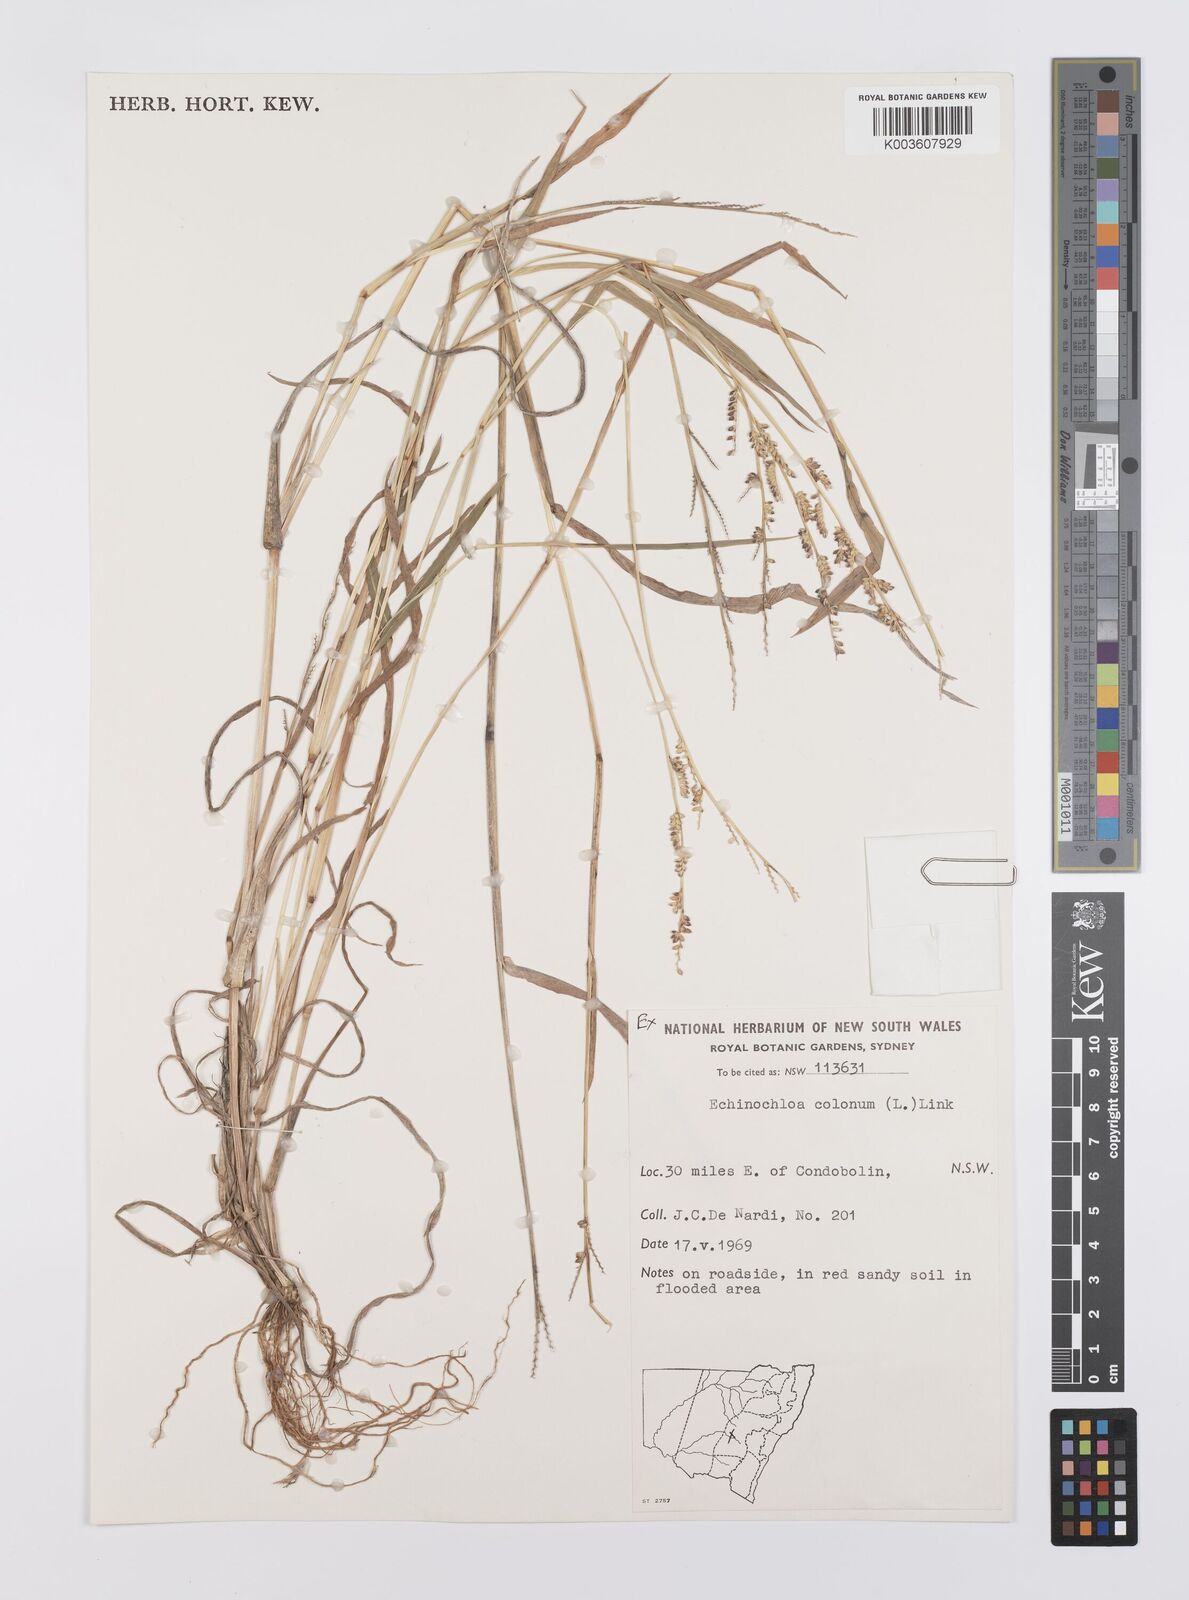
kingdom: Plantae
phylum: Tracheophyta
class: Liliopsida
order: Poales
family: Poaceae
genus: Echinochloa
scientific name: Echinochloa colonum
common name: Jungle rice
